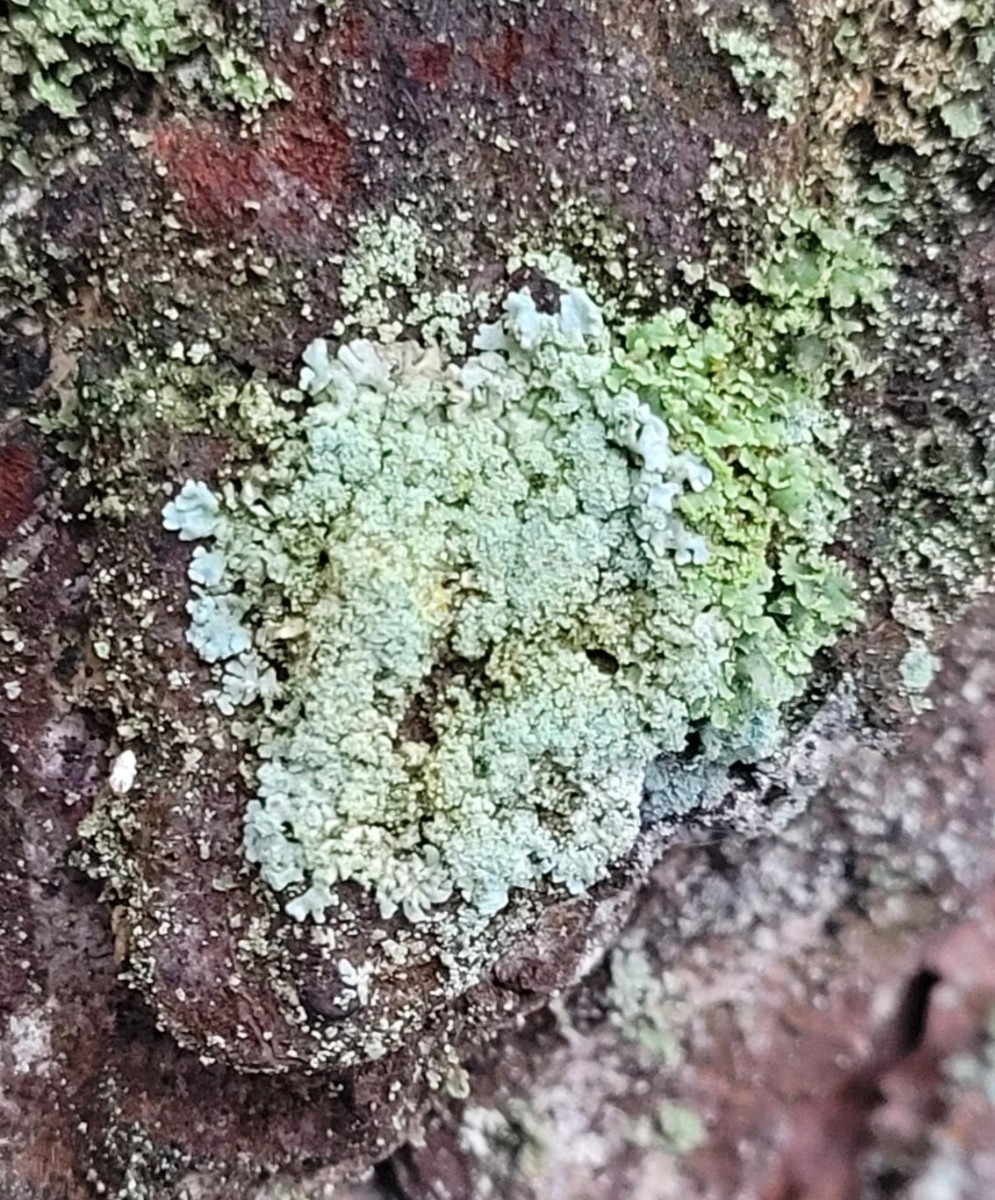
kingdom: Fungi
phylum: Ascomycota
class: Lecanoromycetes
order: Lecanorales
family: Parmeliaceae
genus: Parmeliopsis
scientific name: Parmeliopsis hyperopta
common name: grå stolpelav
